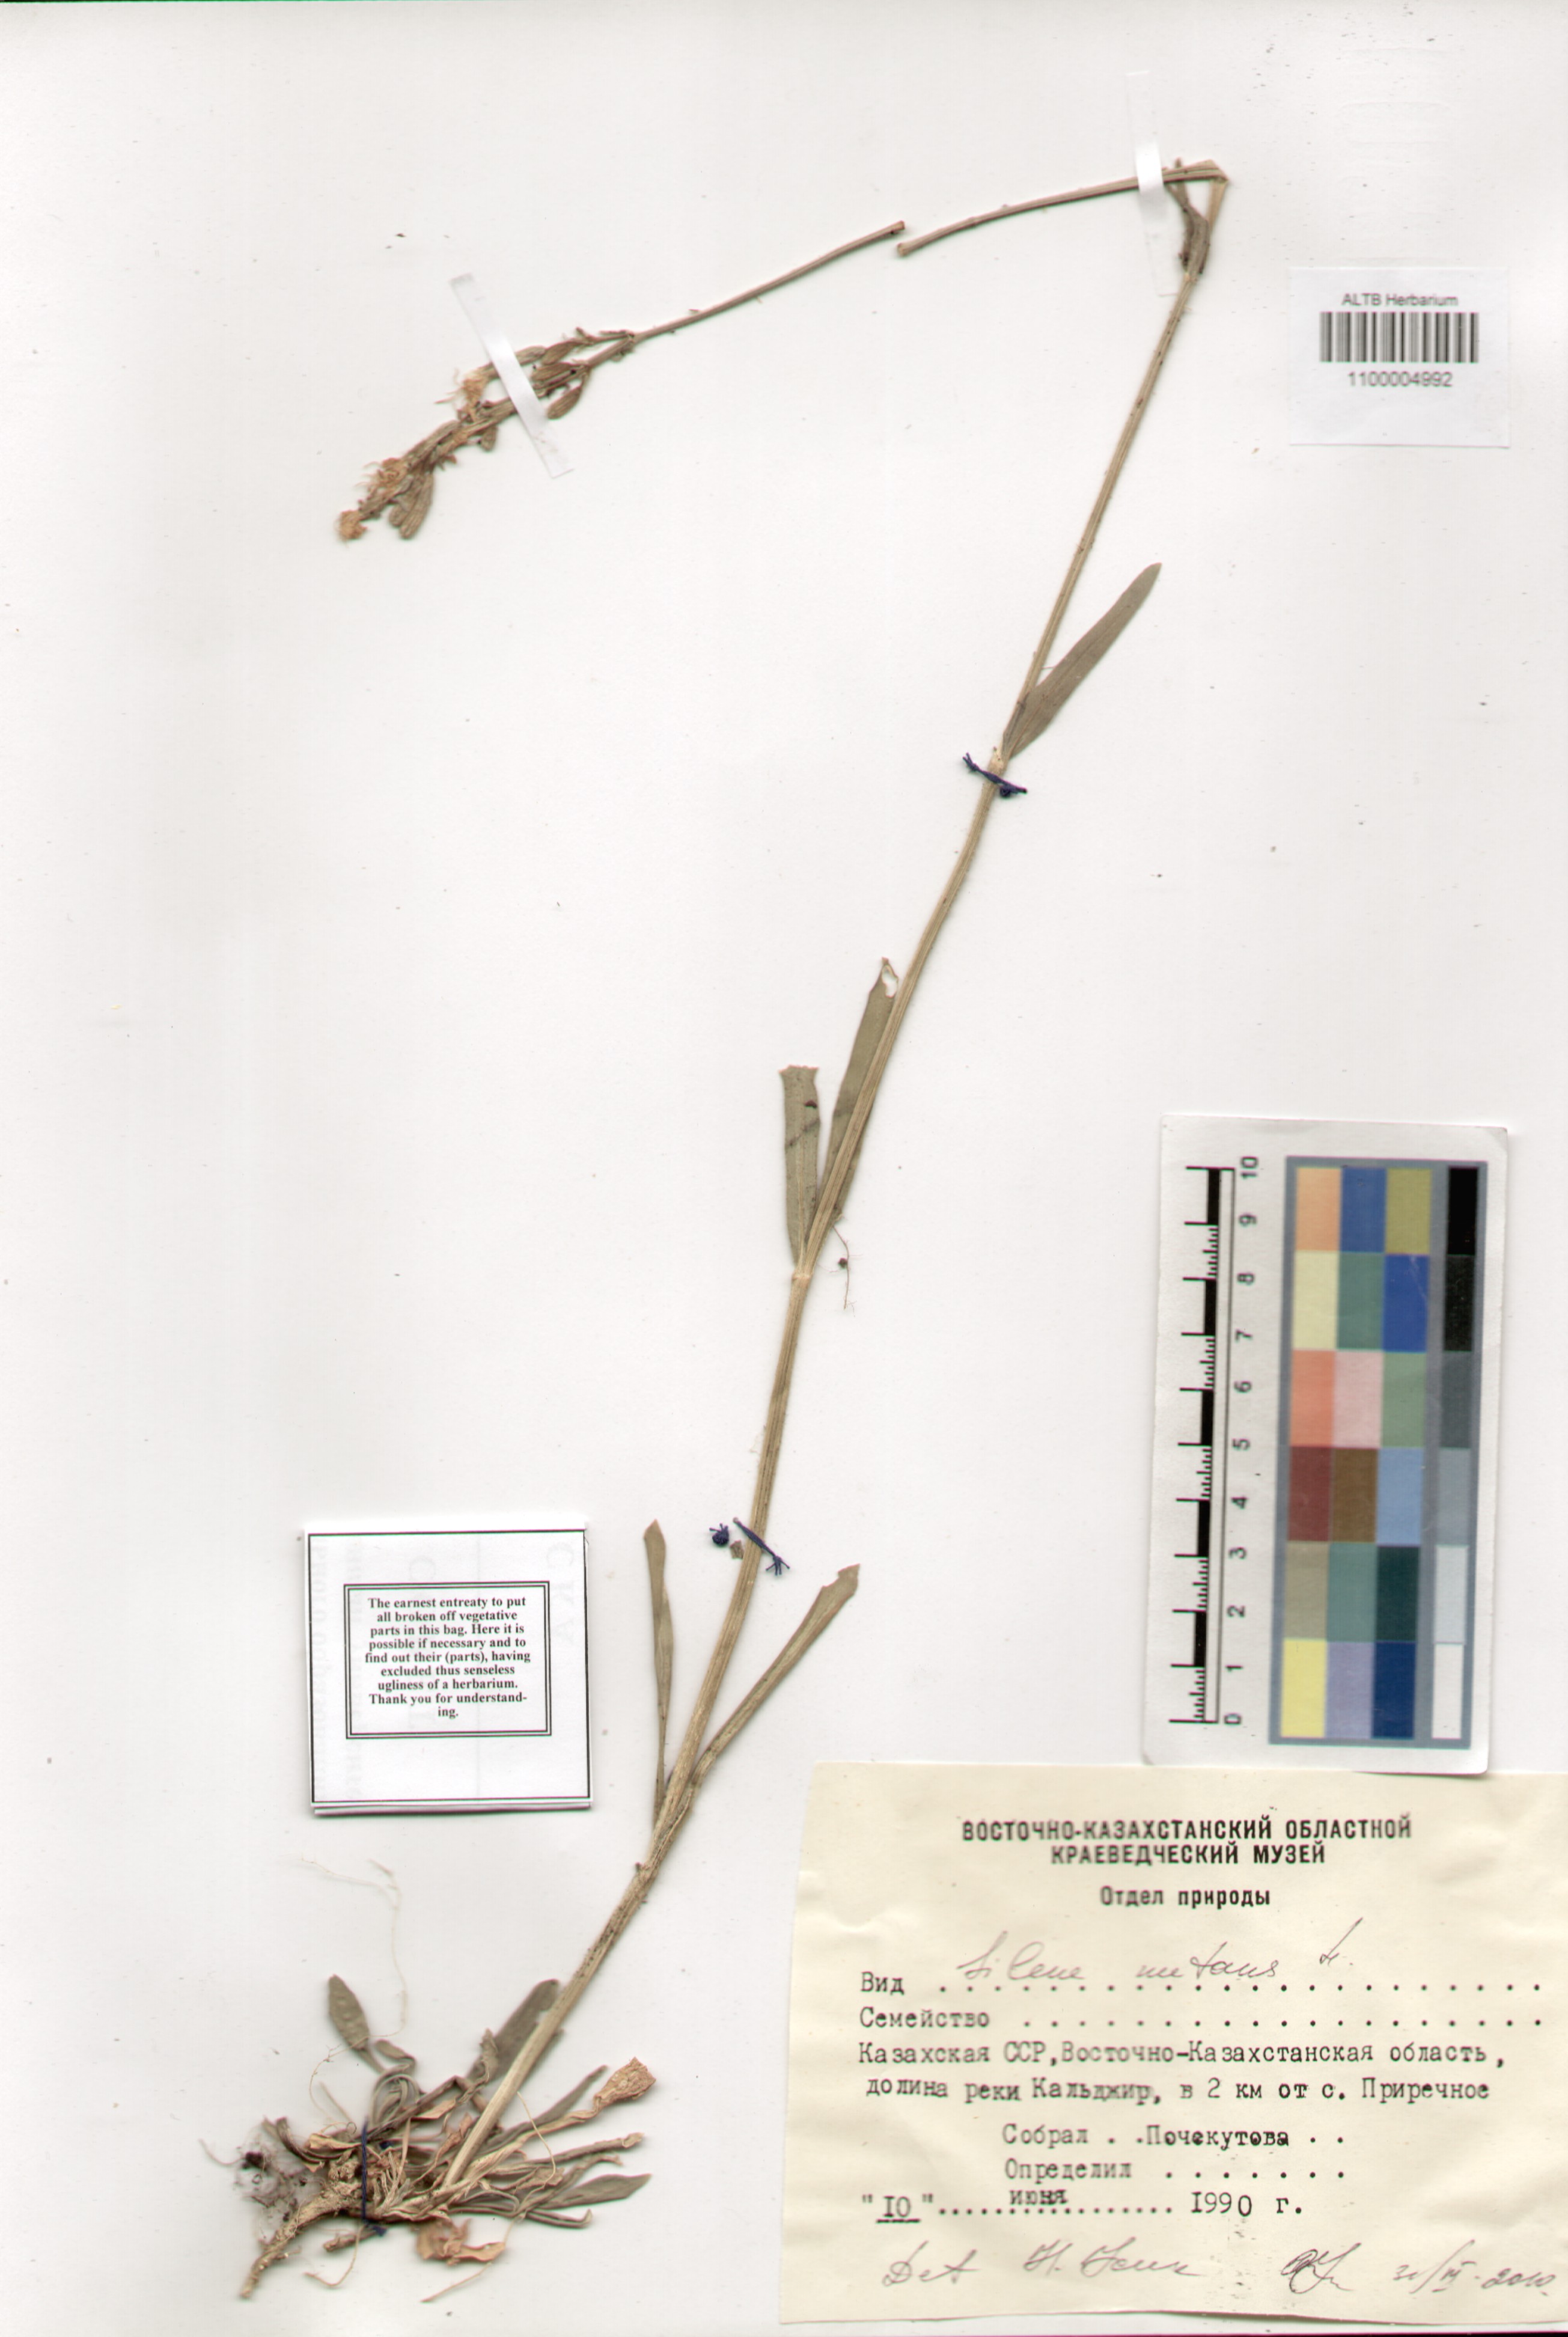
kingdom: Plantae
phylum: Tracheophyta
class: Magnoliopsida
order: Caryophyllales
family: Caryophyllaceae
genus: Silene
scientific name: Silene nutans
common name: Nottingham catchfly
